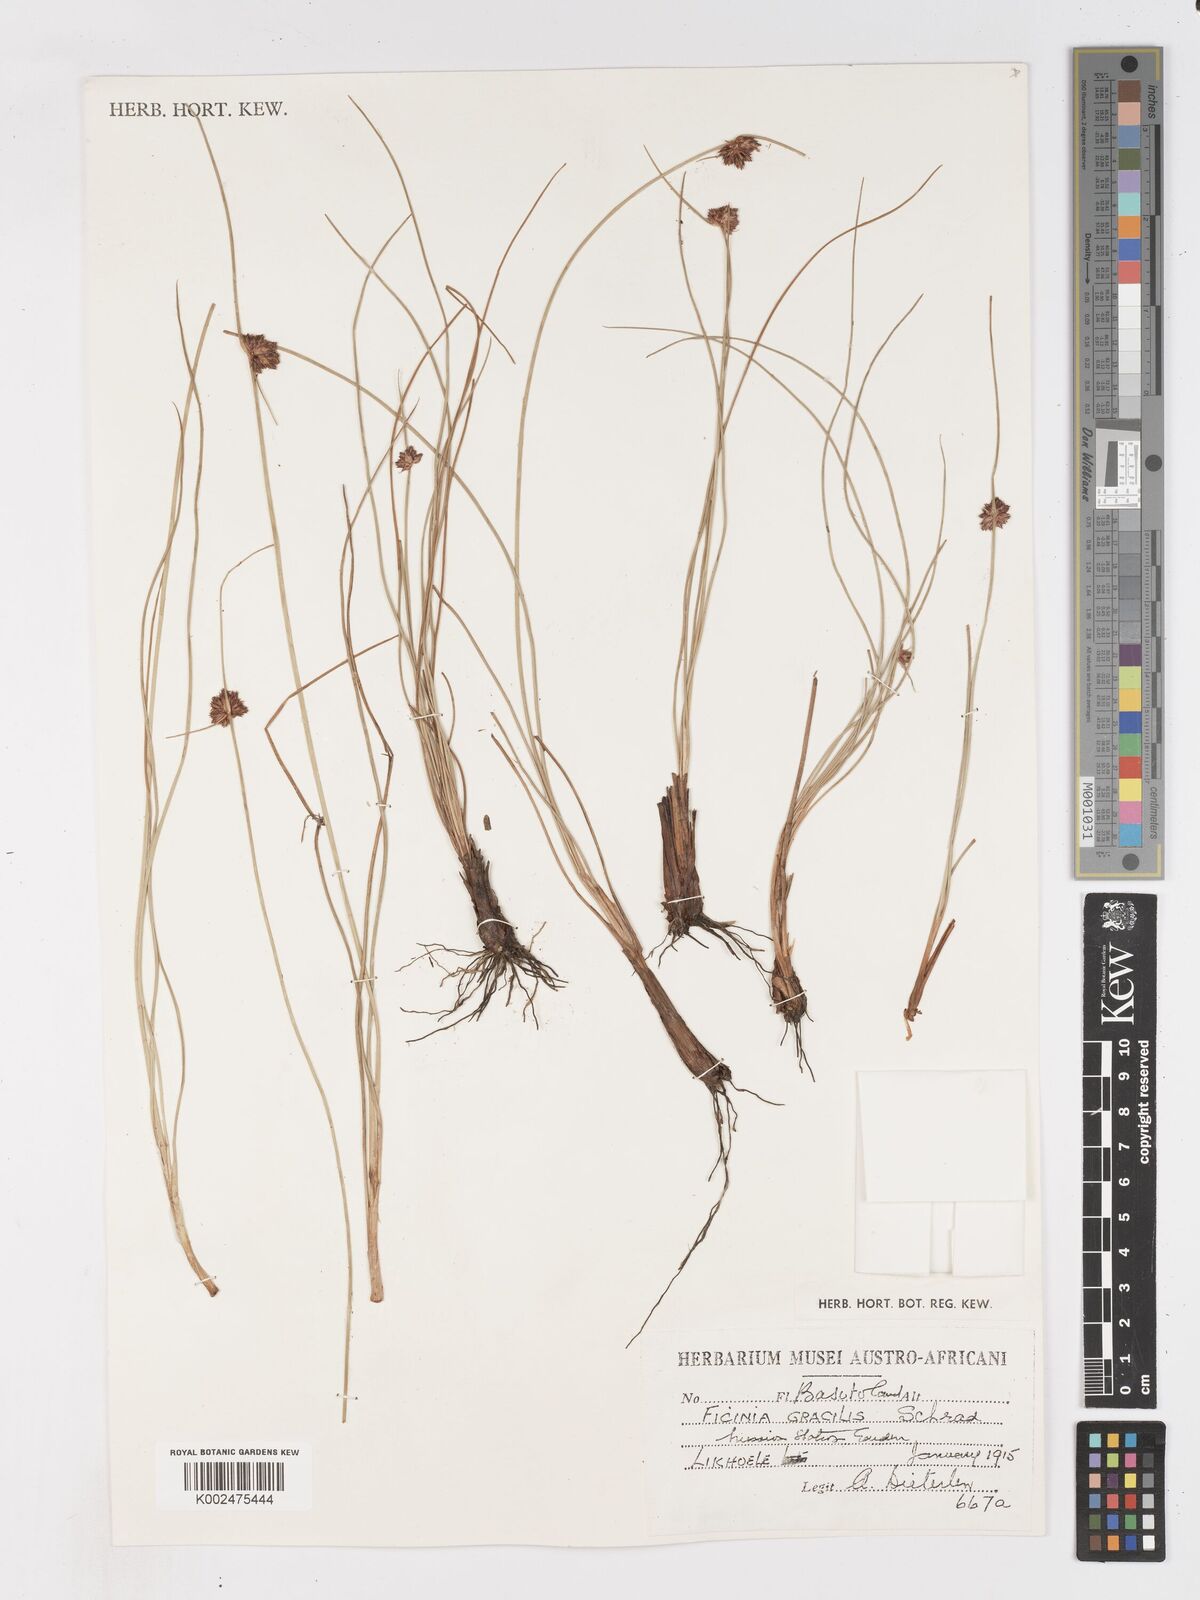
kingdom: Plantae
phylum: Tracheophyta
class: Liliopsida
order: Poales
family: Cyperaceae
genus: Ficinia
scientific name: Ficinia cinnamomea
